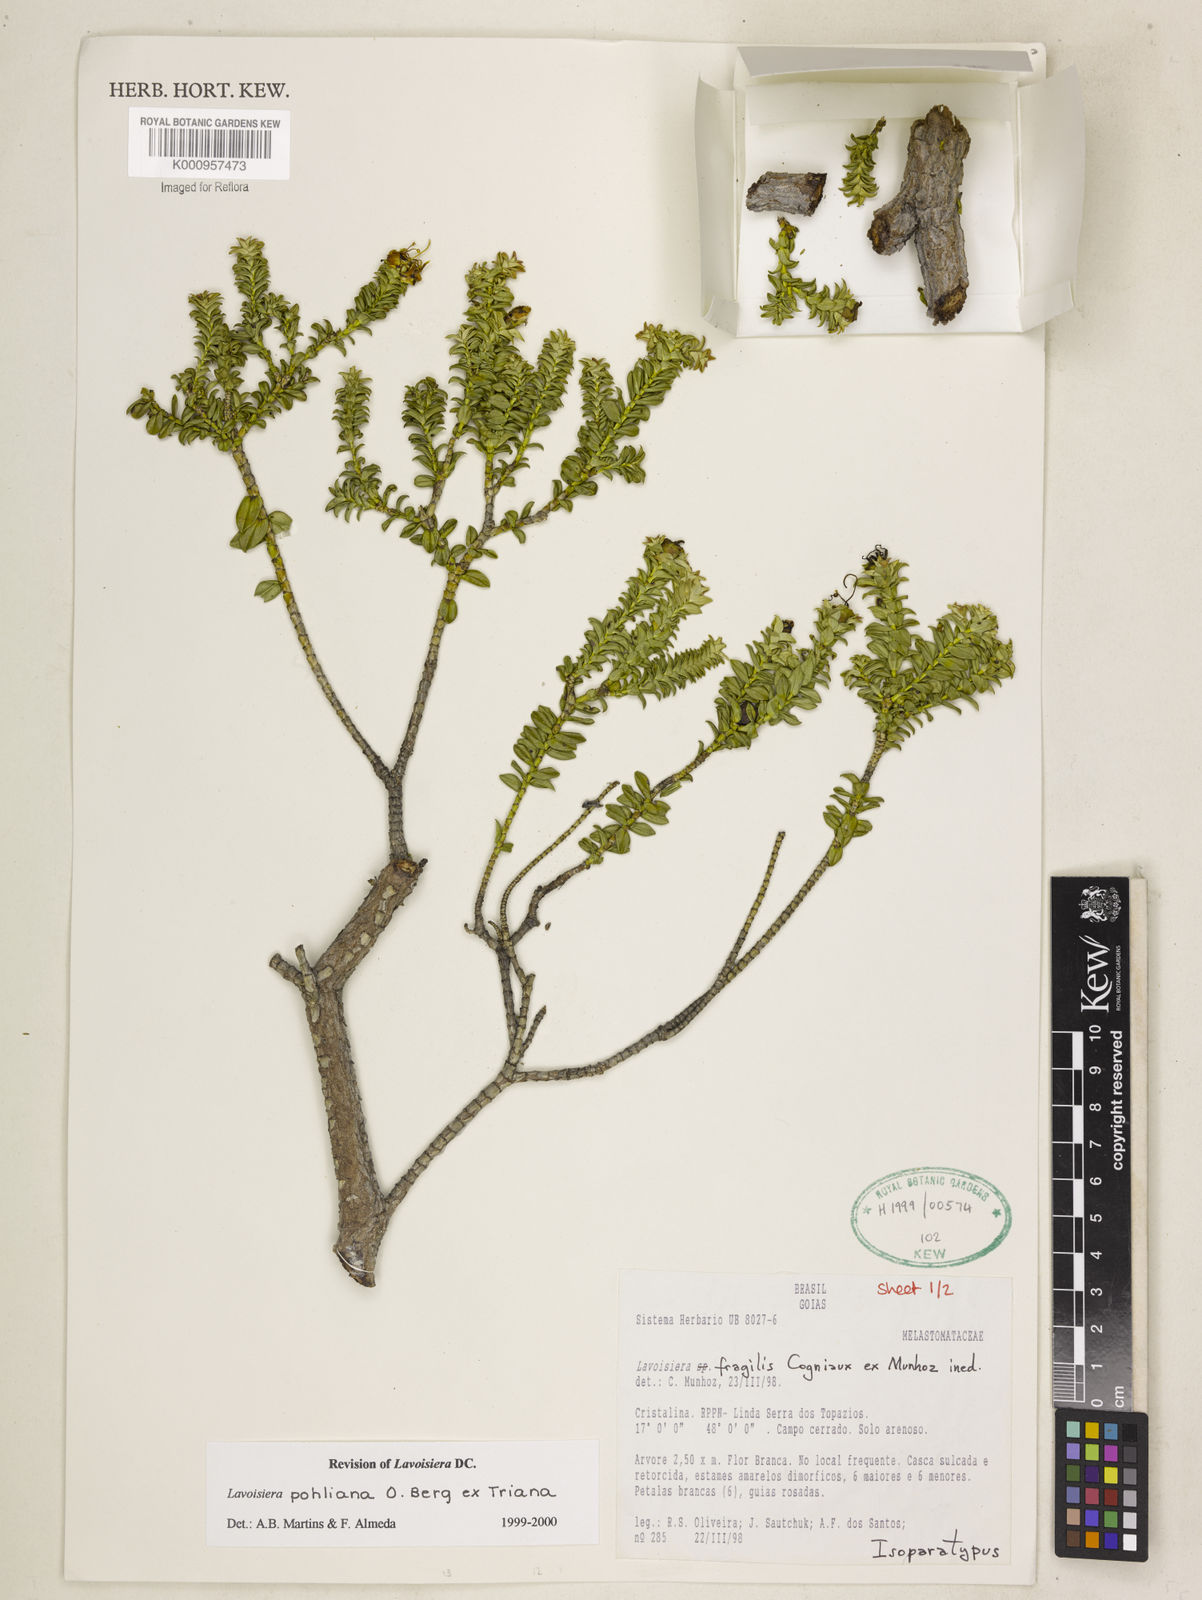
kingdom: Plantae
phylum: Tracheophyta
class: Magnoliopsida
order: Myrtales
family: Melastomataceae
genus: Microlicia
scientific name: Microlicia pohliana
